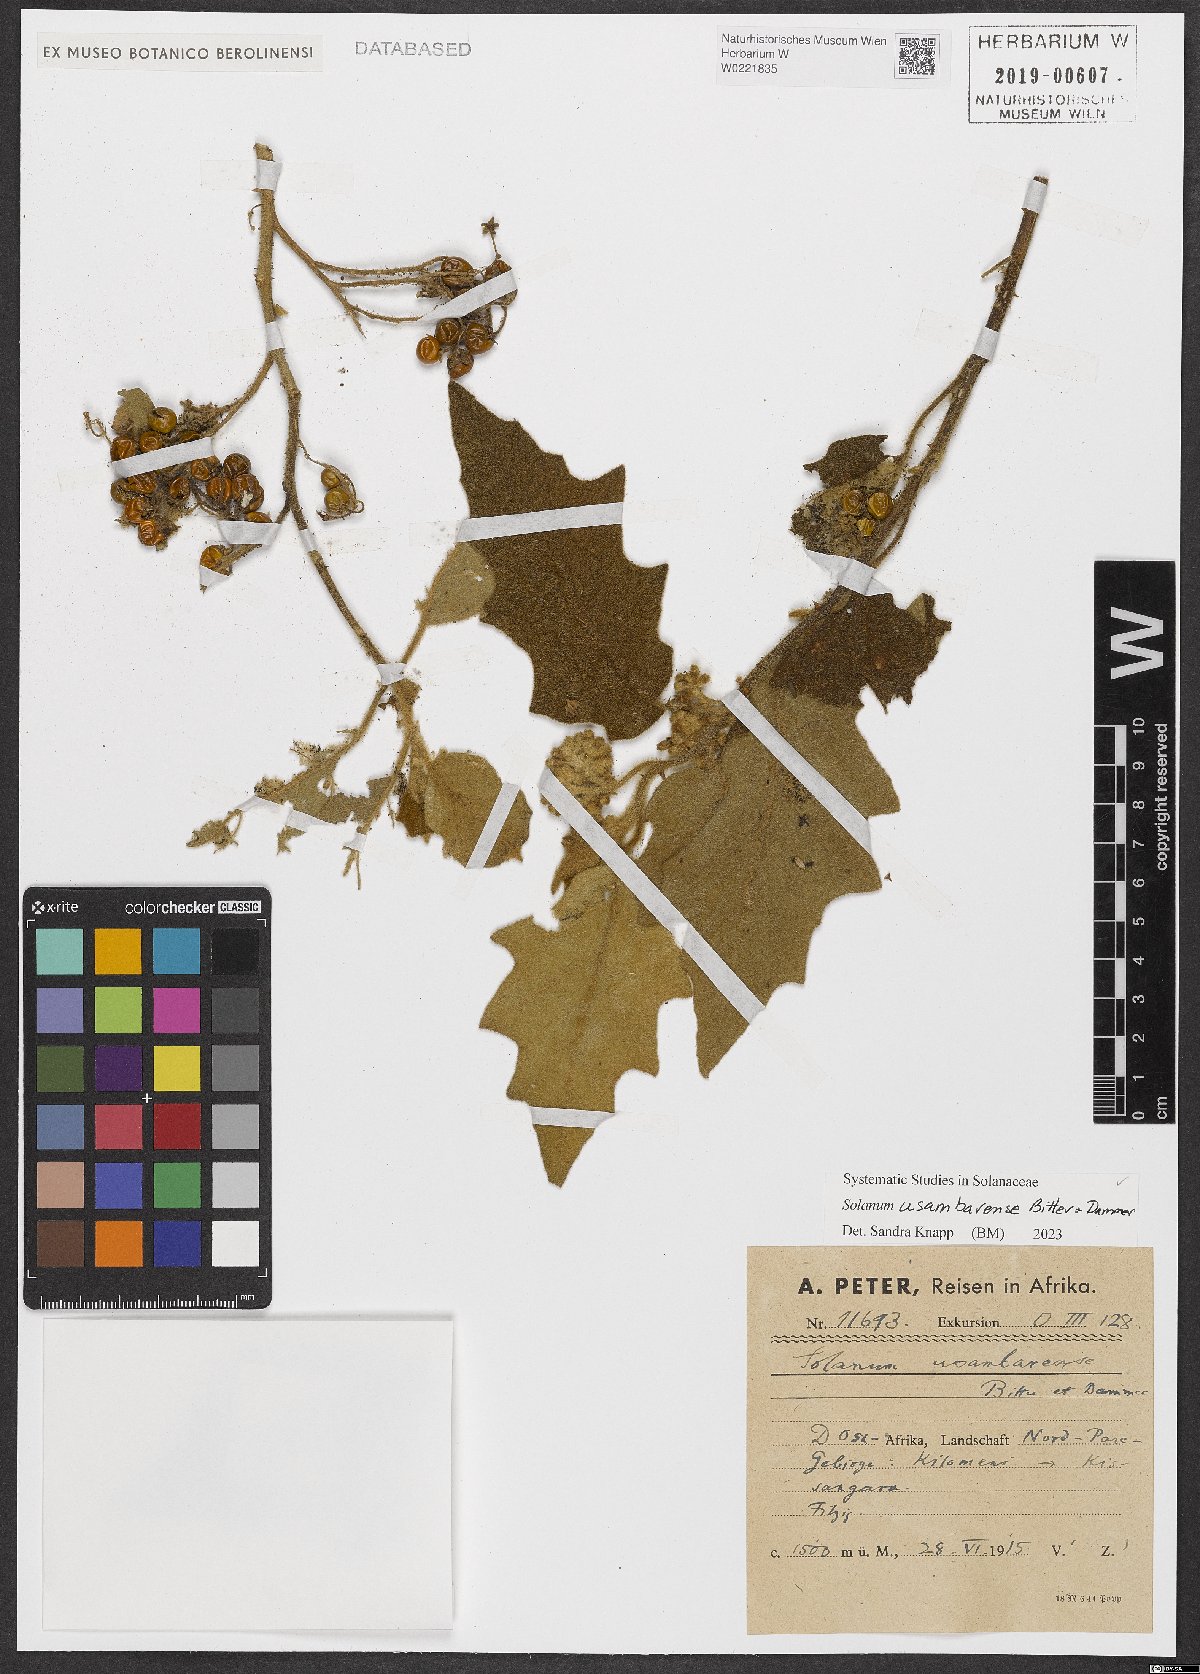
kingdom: Plantae
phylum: Tracheophyta
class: Magnoliopsida
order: Solanales
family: Solanaceae
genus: Solanum
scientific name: Solanum usambarense
